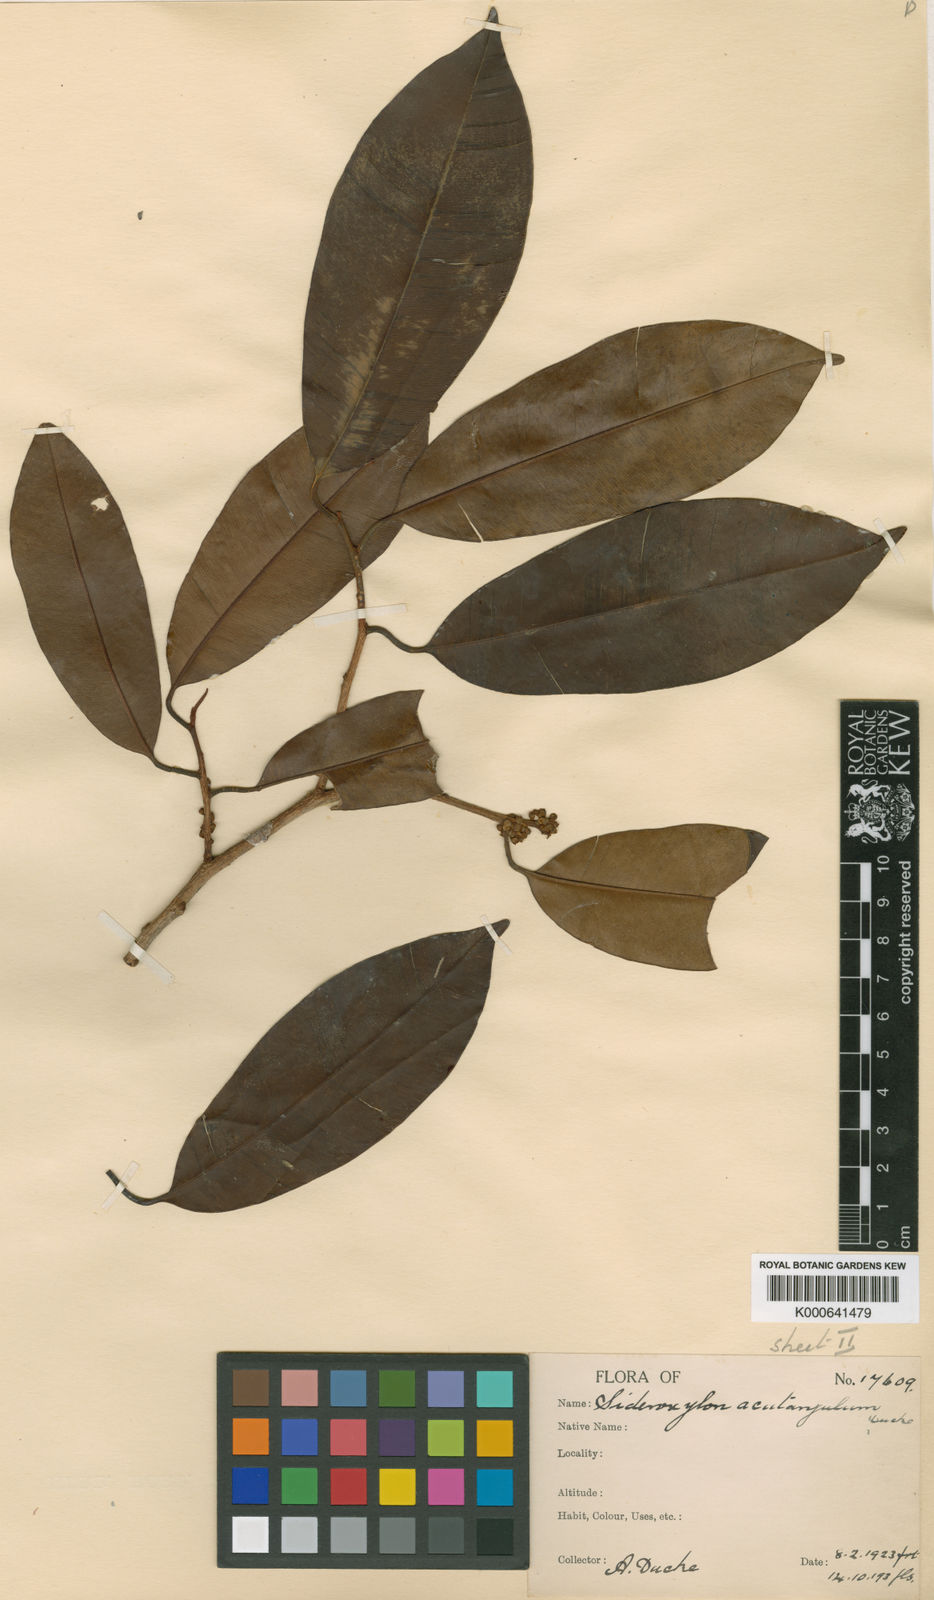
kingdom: Plantae
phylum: Tracheophyta
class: Magnoliopsida
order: Ericales
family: Sapotaceae
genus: Micropholis
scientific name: Micropholis acutangula
